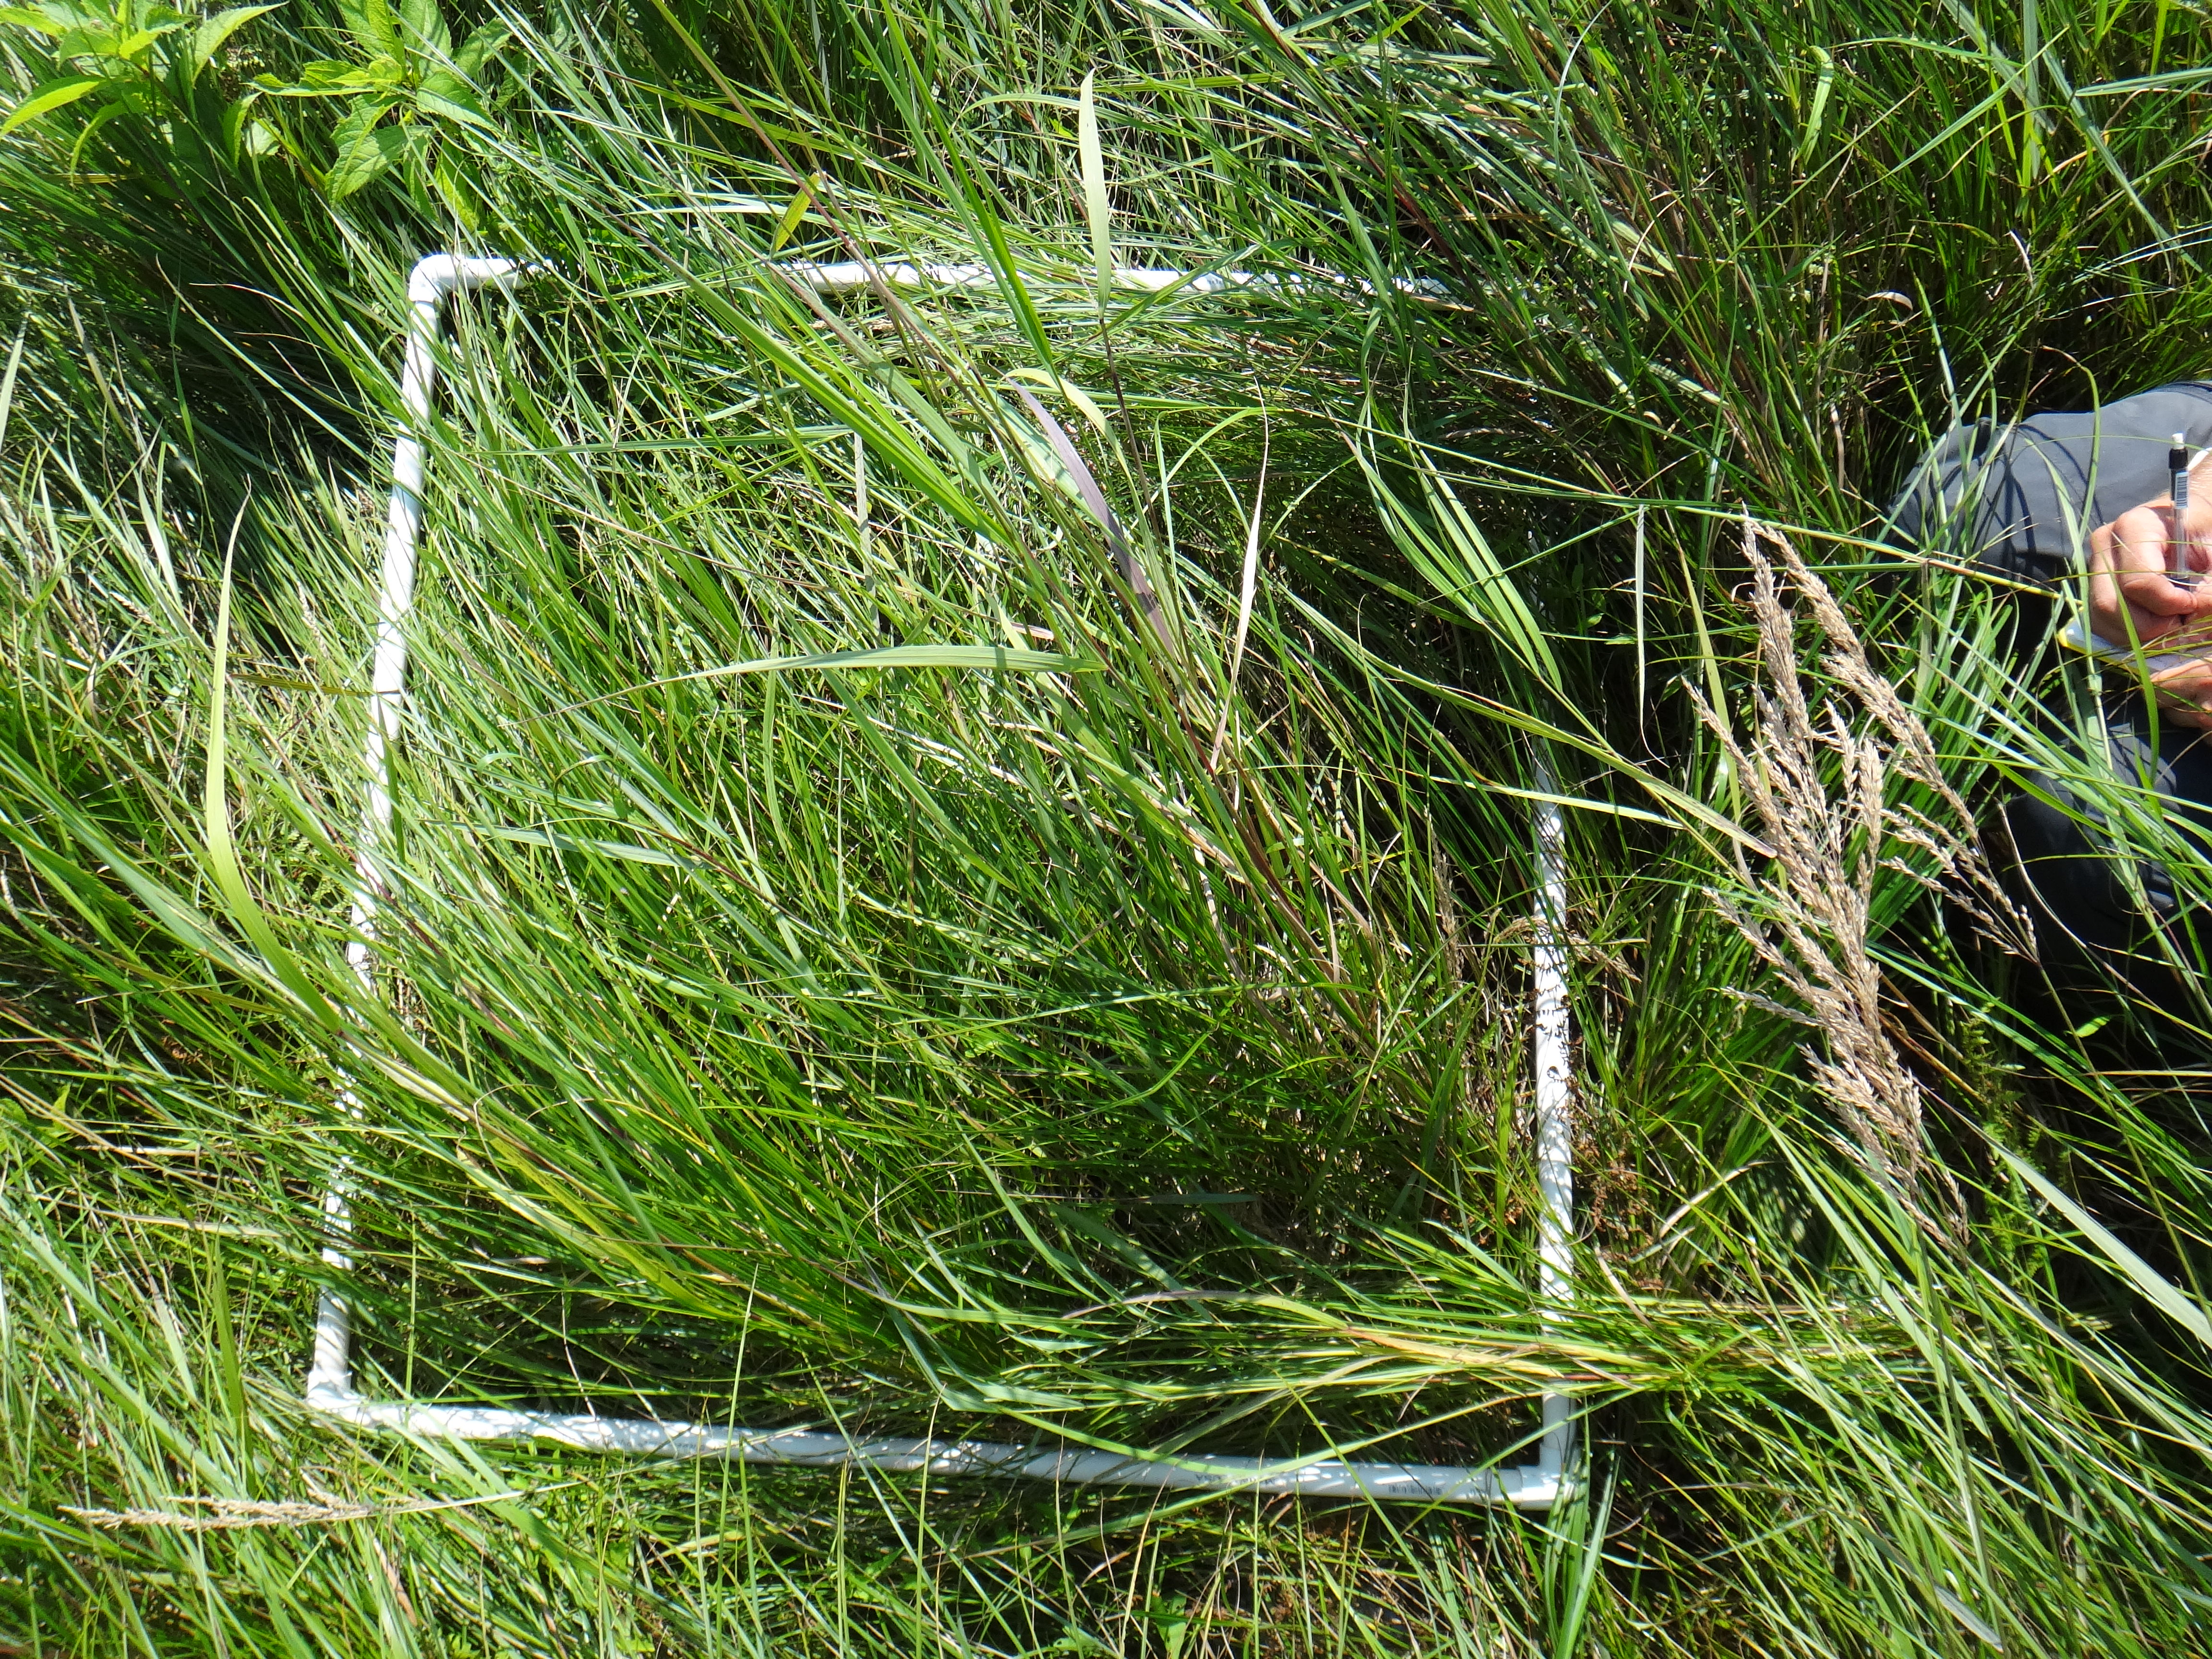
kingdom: Plantae
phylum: Tracheophyta
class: Magnoliopsida
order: Solanales
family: Convolvulaceae
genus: Calystegia
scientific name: Calystegia sepium
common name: Hedge bindweed
